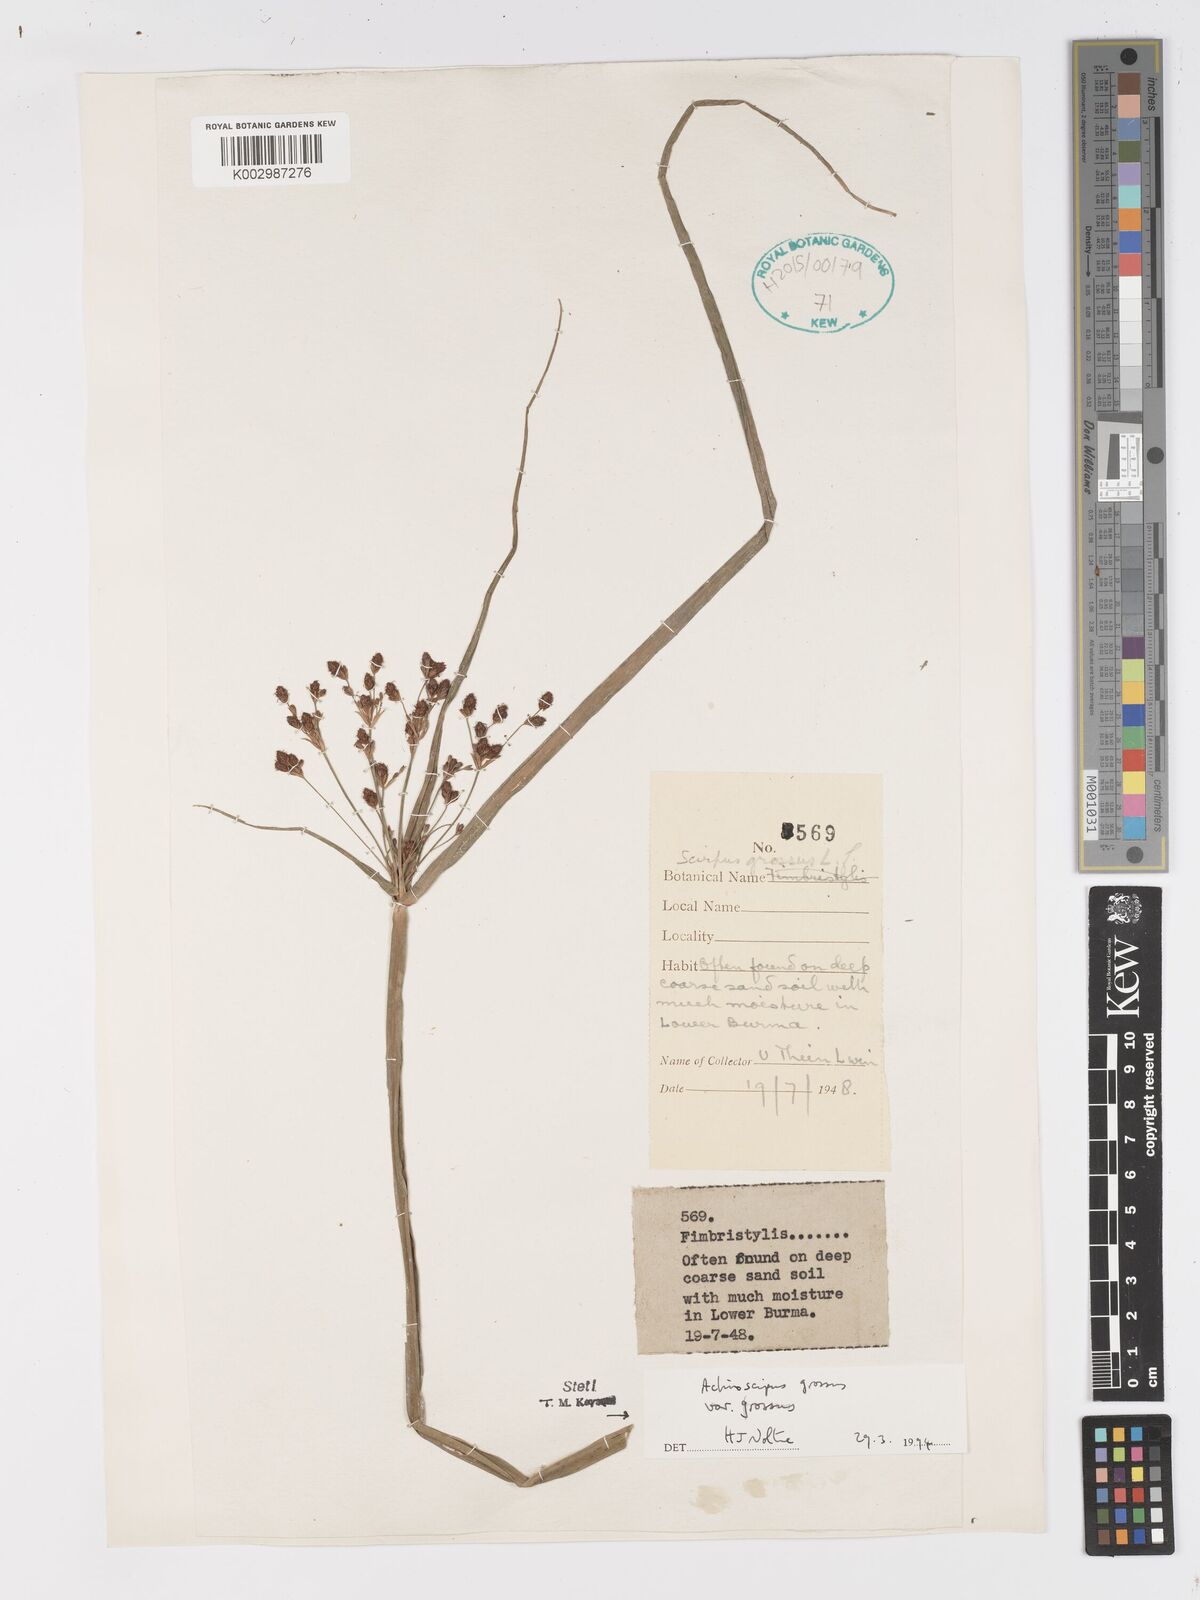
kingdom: Plantae
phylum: Tracheophyta
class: Liliopsida
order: Poales
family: Cyperaceae
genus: Actinoscirpus
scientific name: Actinoscirpus grossus
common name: Giant bur rush
